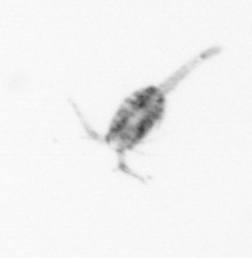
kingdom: Animalia
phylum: Arthropoda
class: Copepoda
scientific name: Copepoda
